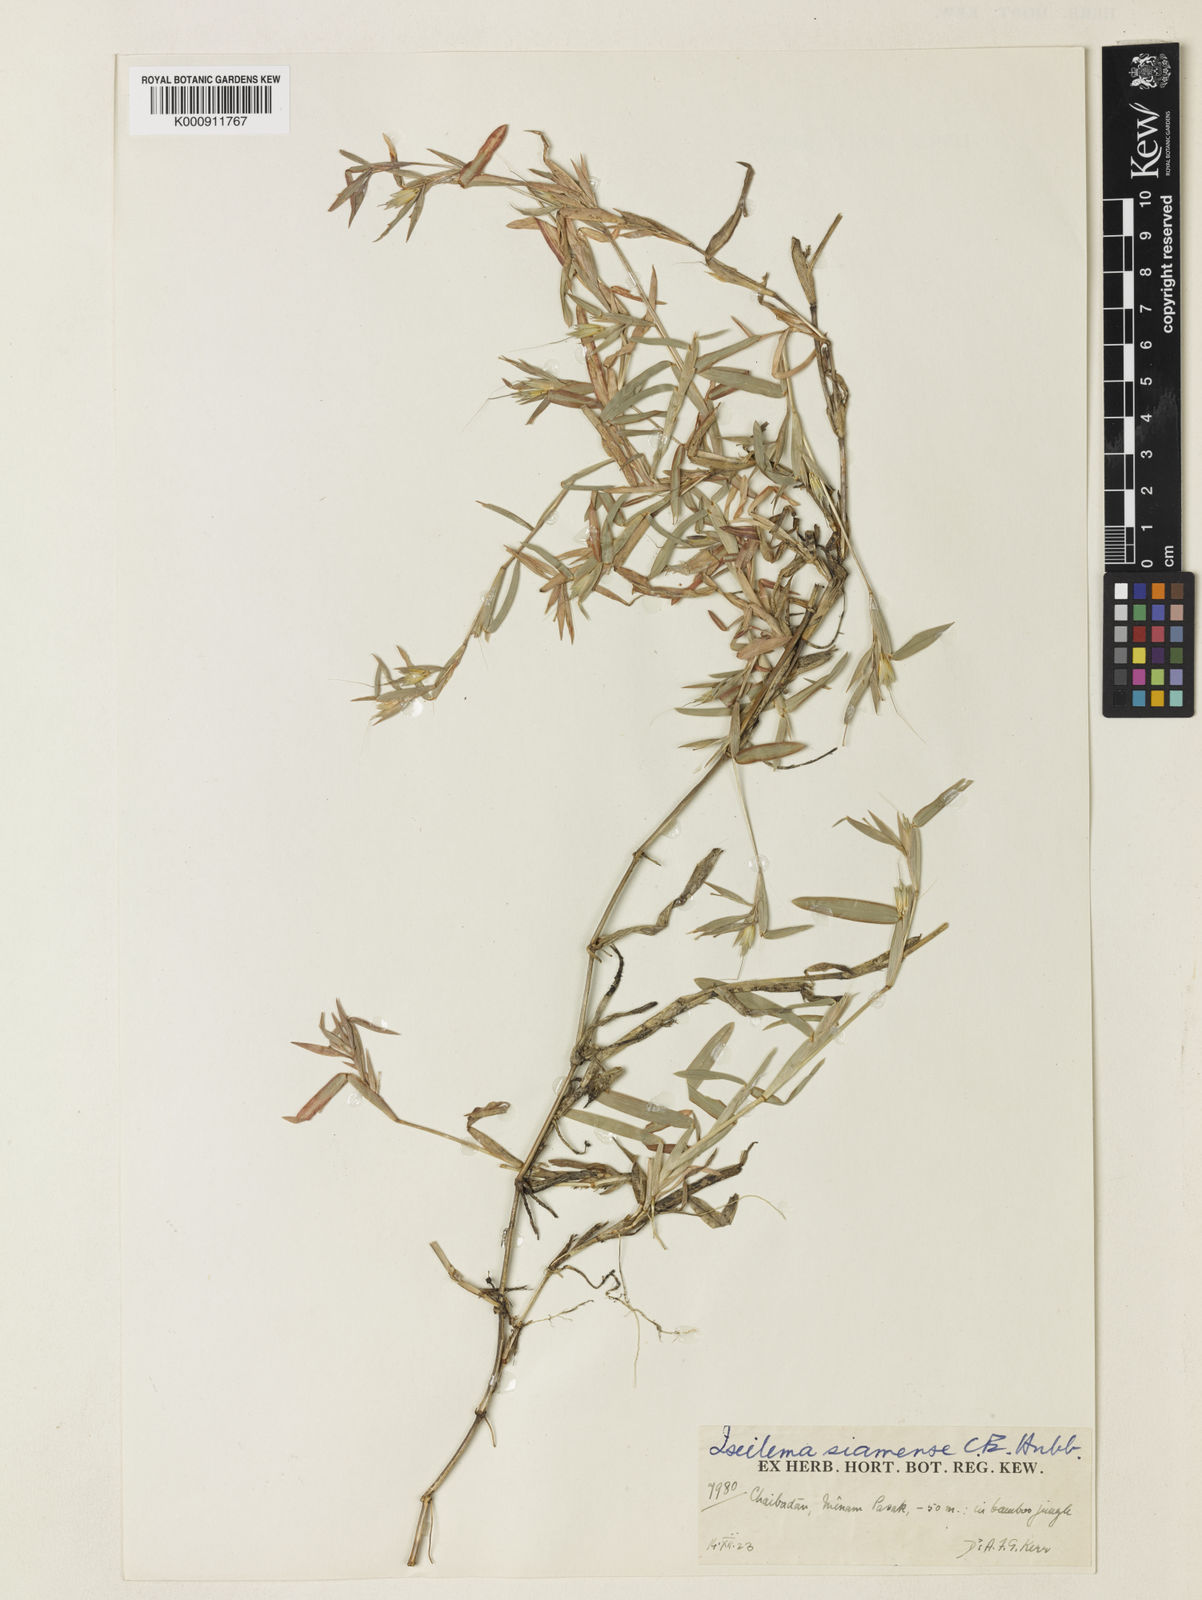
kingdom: Plantae
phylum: Tracheophyta
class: Liliopsida
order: Poales
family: Poaceae
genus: Iseilema
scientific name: Iseilema siamense
